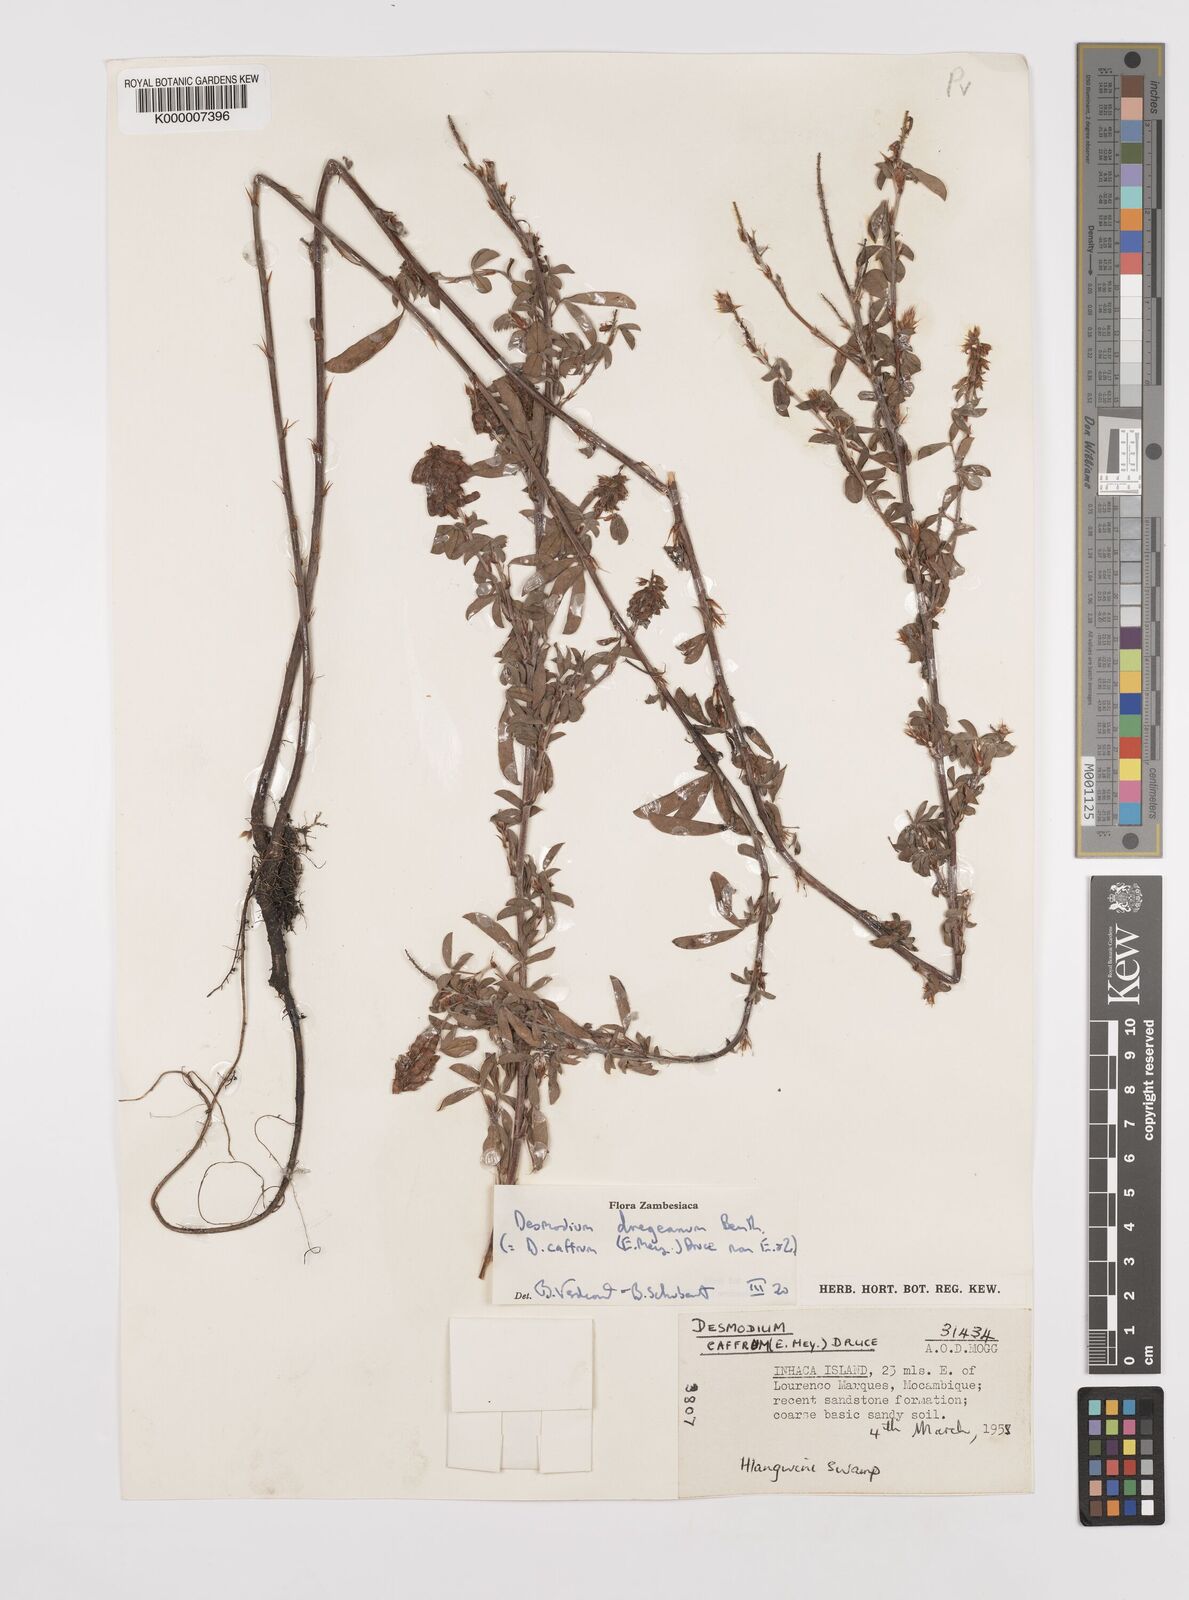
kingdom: Plantae
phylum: Tracheophyta
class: Magnoliopsida
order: Fabales
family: Fabaceae
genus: Grona
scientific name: Grona caffra
